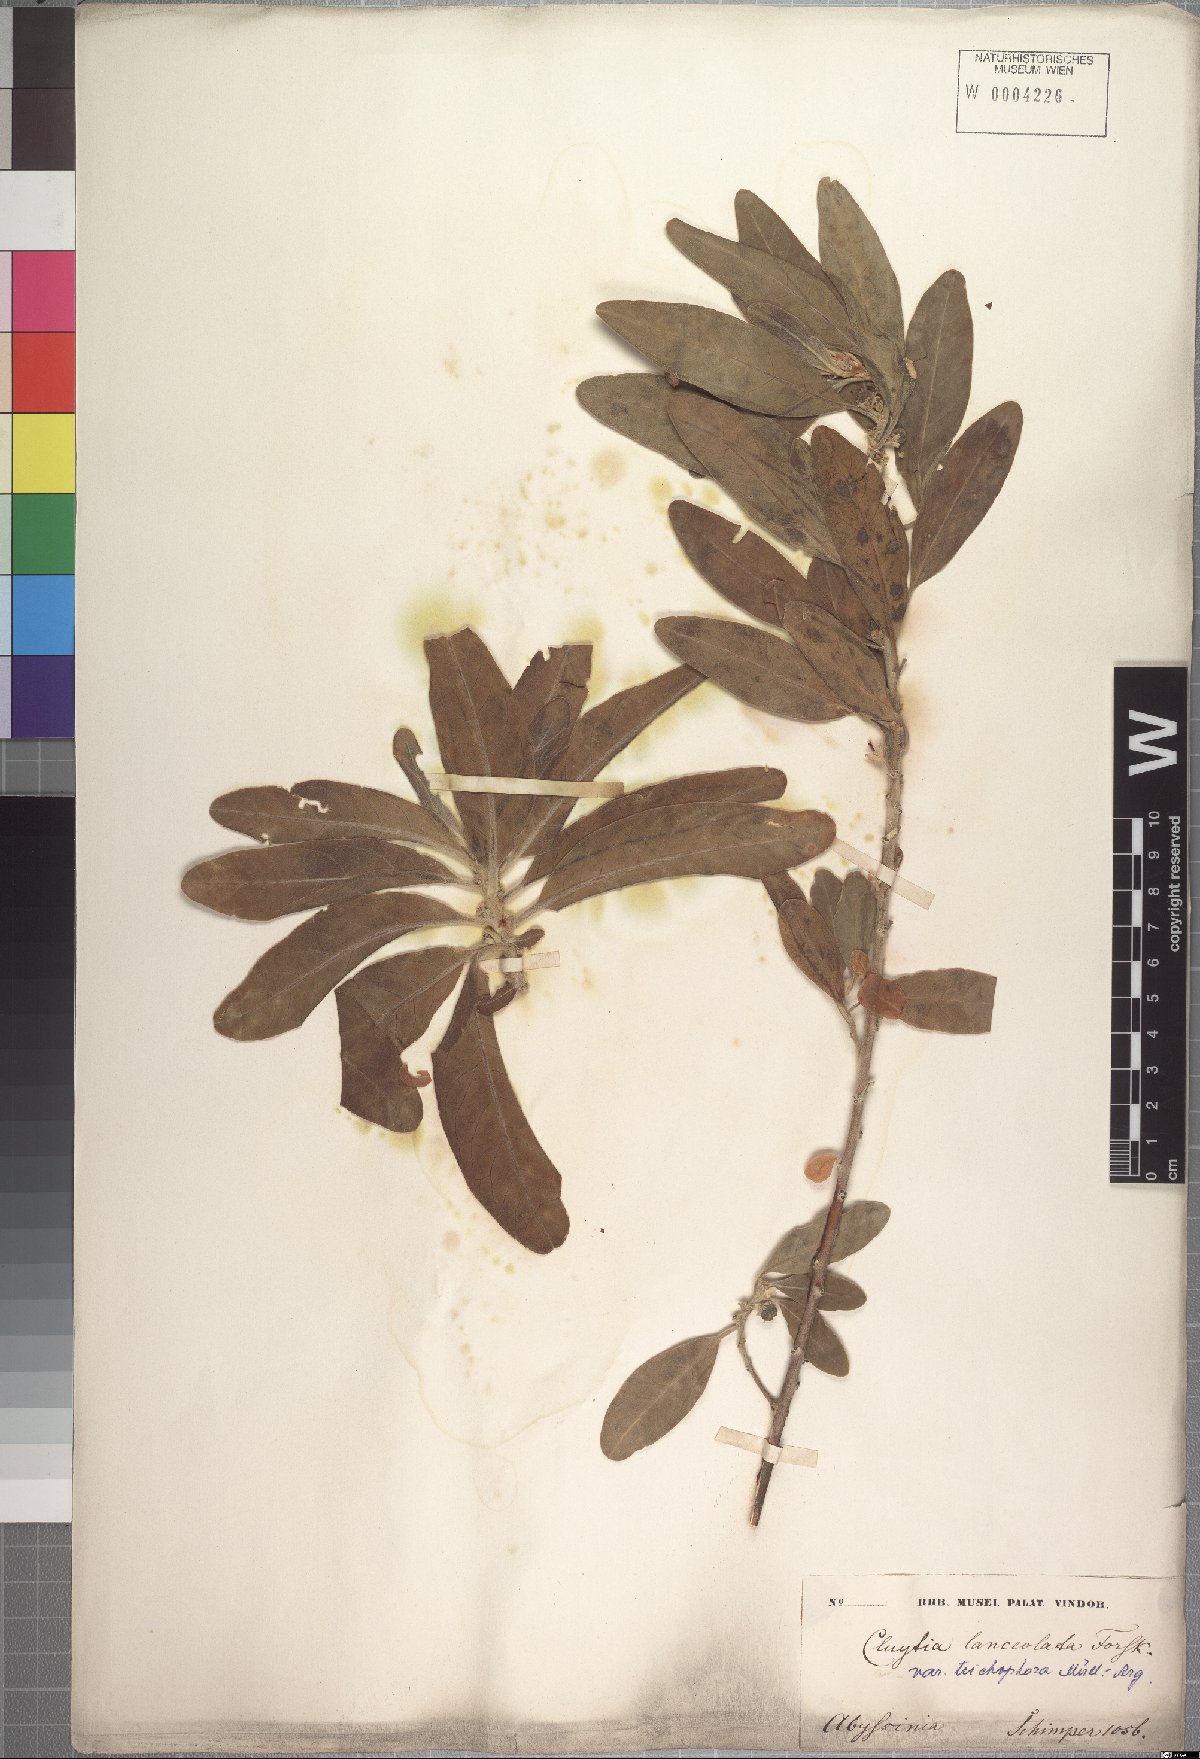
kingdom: Plantae
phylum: Tracheophyta
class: Magnoliopsida
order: Malpighiales
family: Peraceae
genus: Clutia
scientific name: Clutia kilimandscharica
